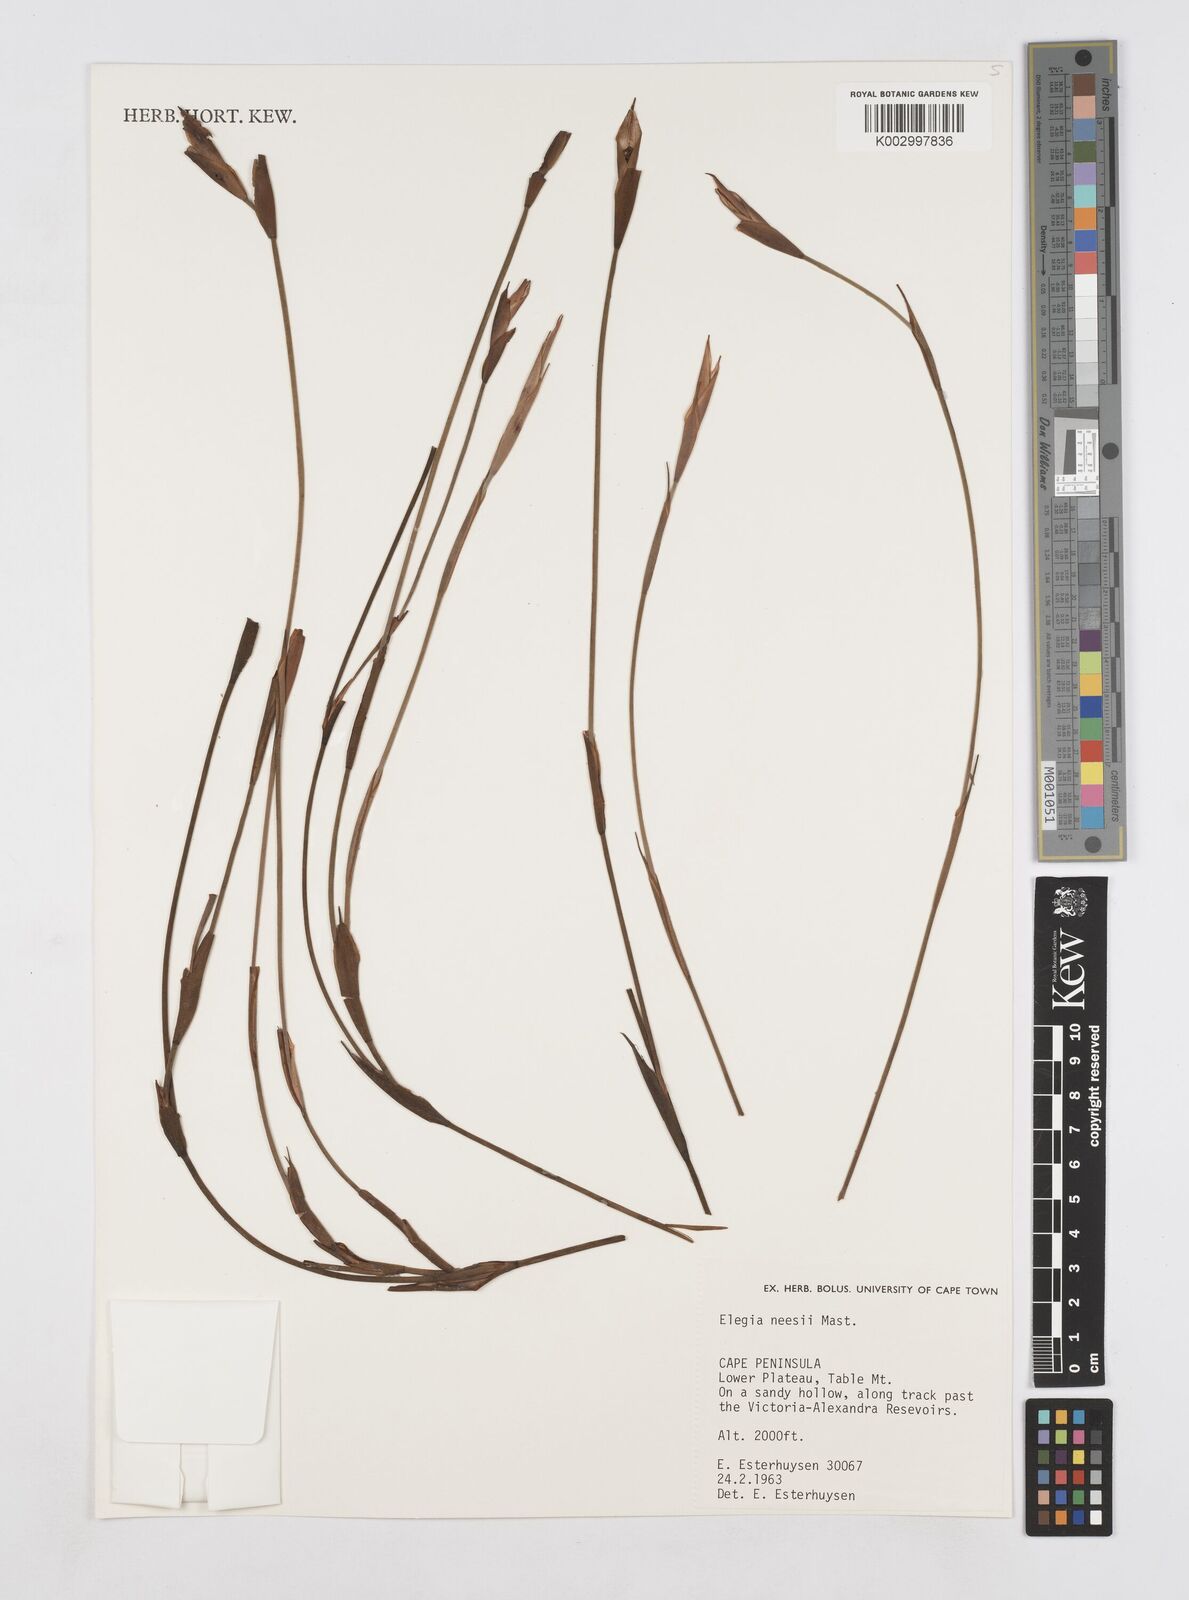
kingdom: Plantae
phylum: Tracheophyta
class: Liliopsida
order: Poales
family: Restionaceae
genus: Elegia
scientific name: Elegia neesii
